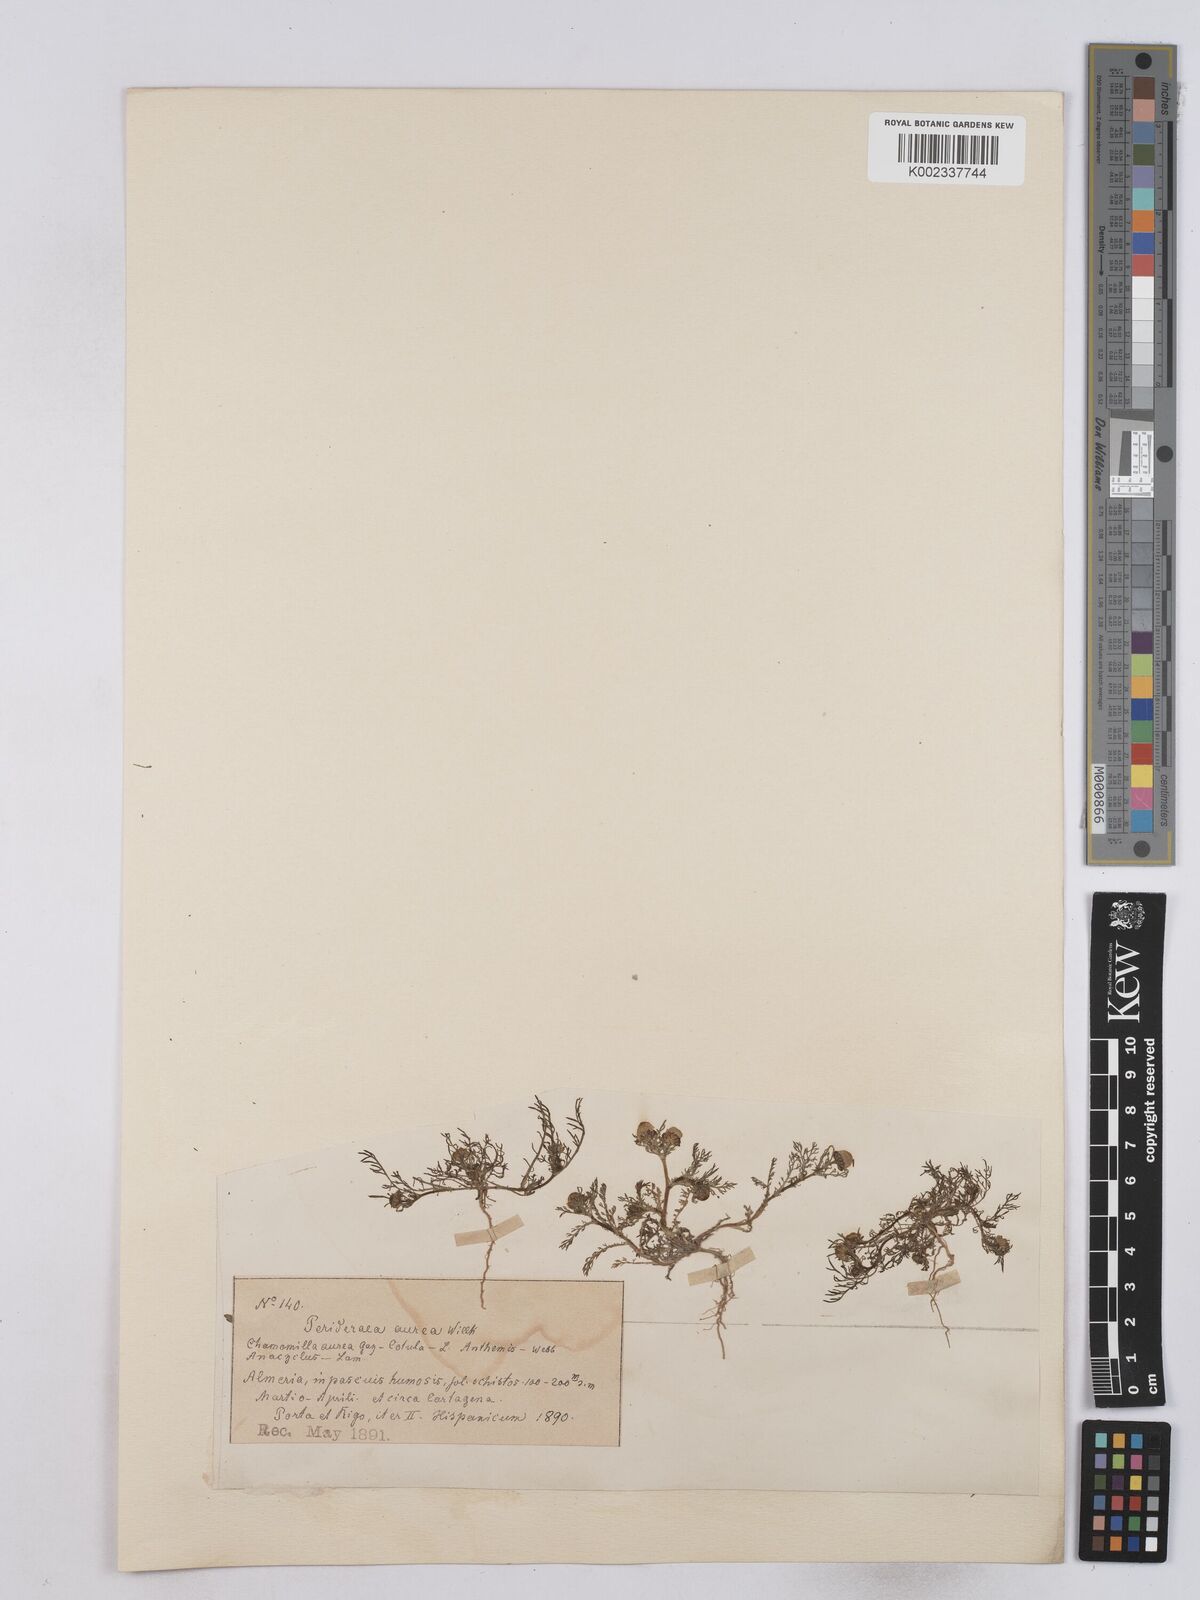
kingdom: Plantae
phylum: Tracheophyta
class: Magnoliopsida
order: Asterales
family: Asteraceae
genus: Matricaria
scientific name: Matricaria aurea
